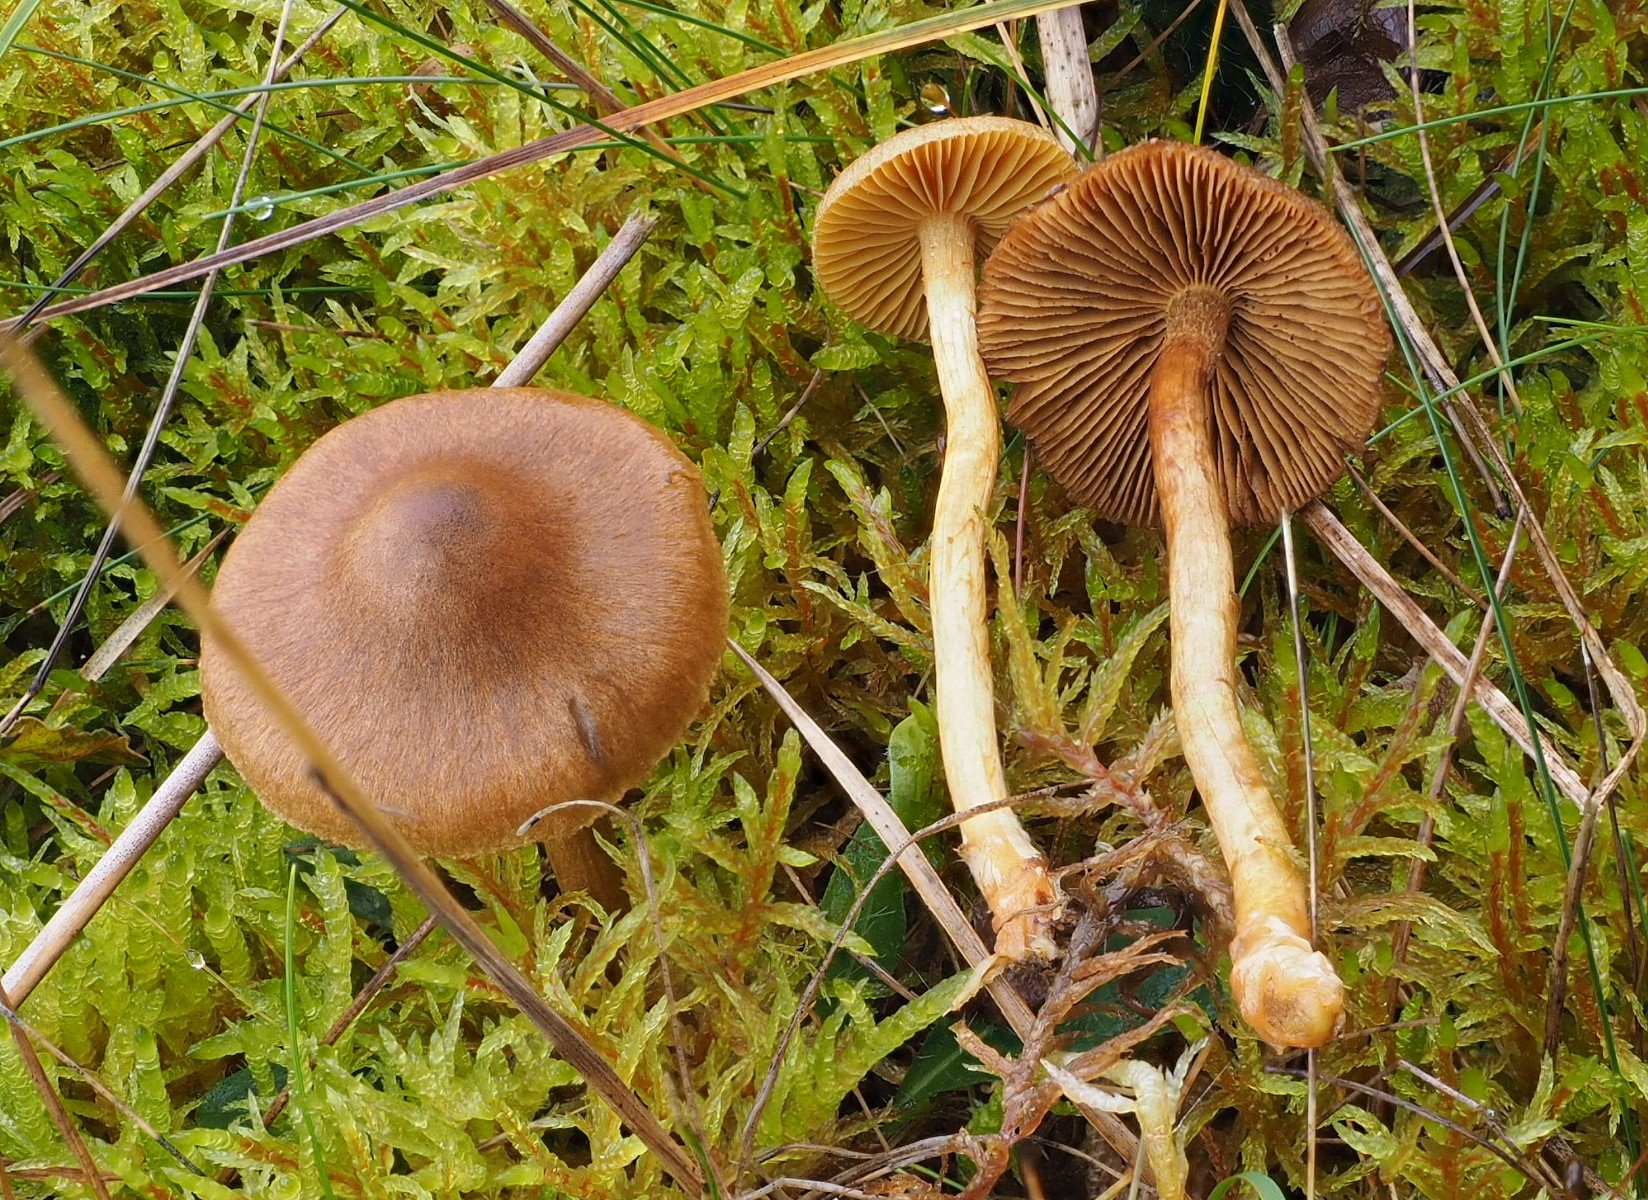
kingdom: Fungi
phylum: Basidiomycota
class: Agaricomycetes
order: Agaricales
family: Cortinariaceae
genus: Cortinarius
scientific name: Cortinarius
